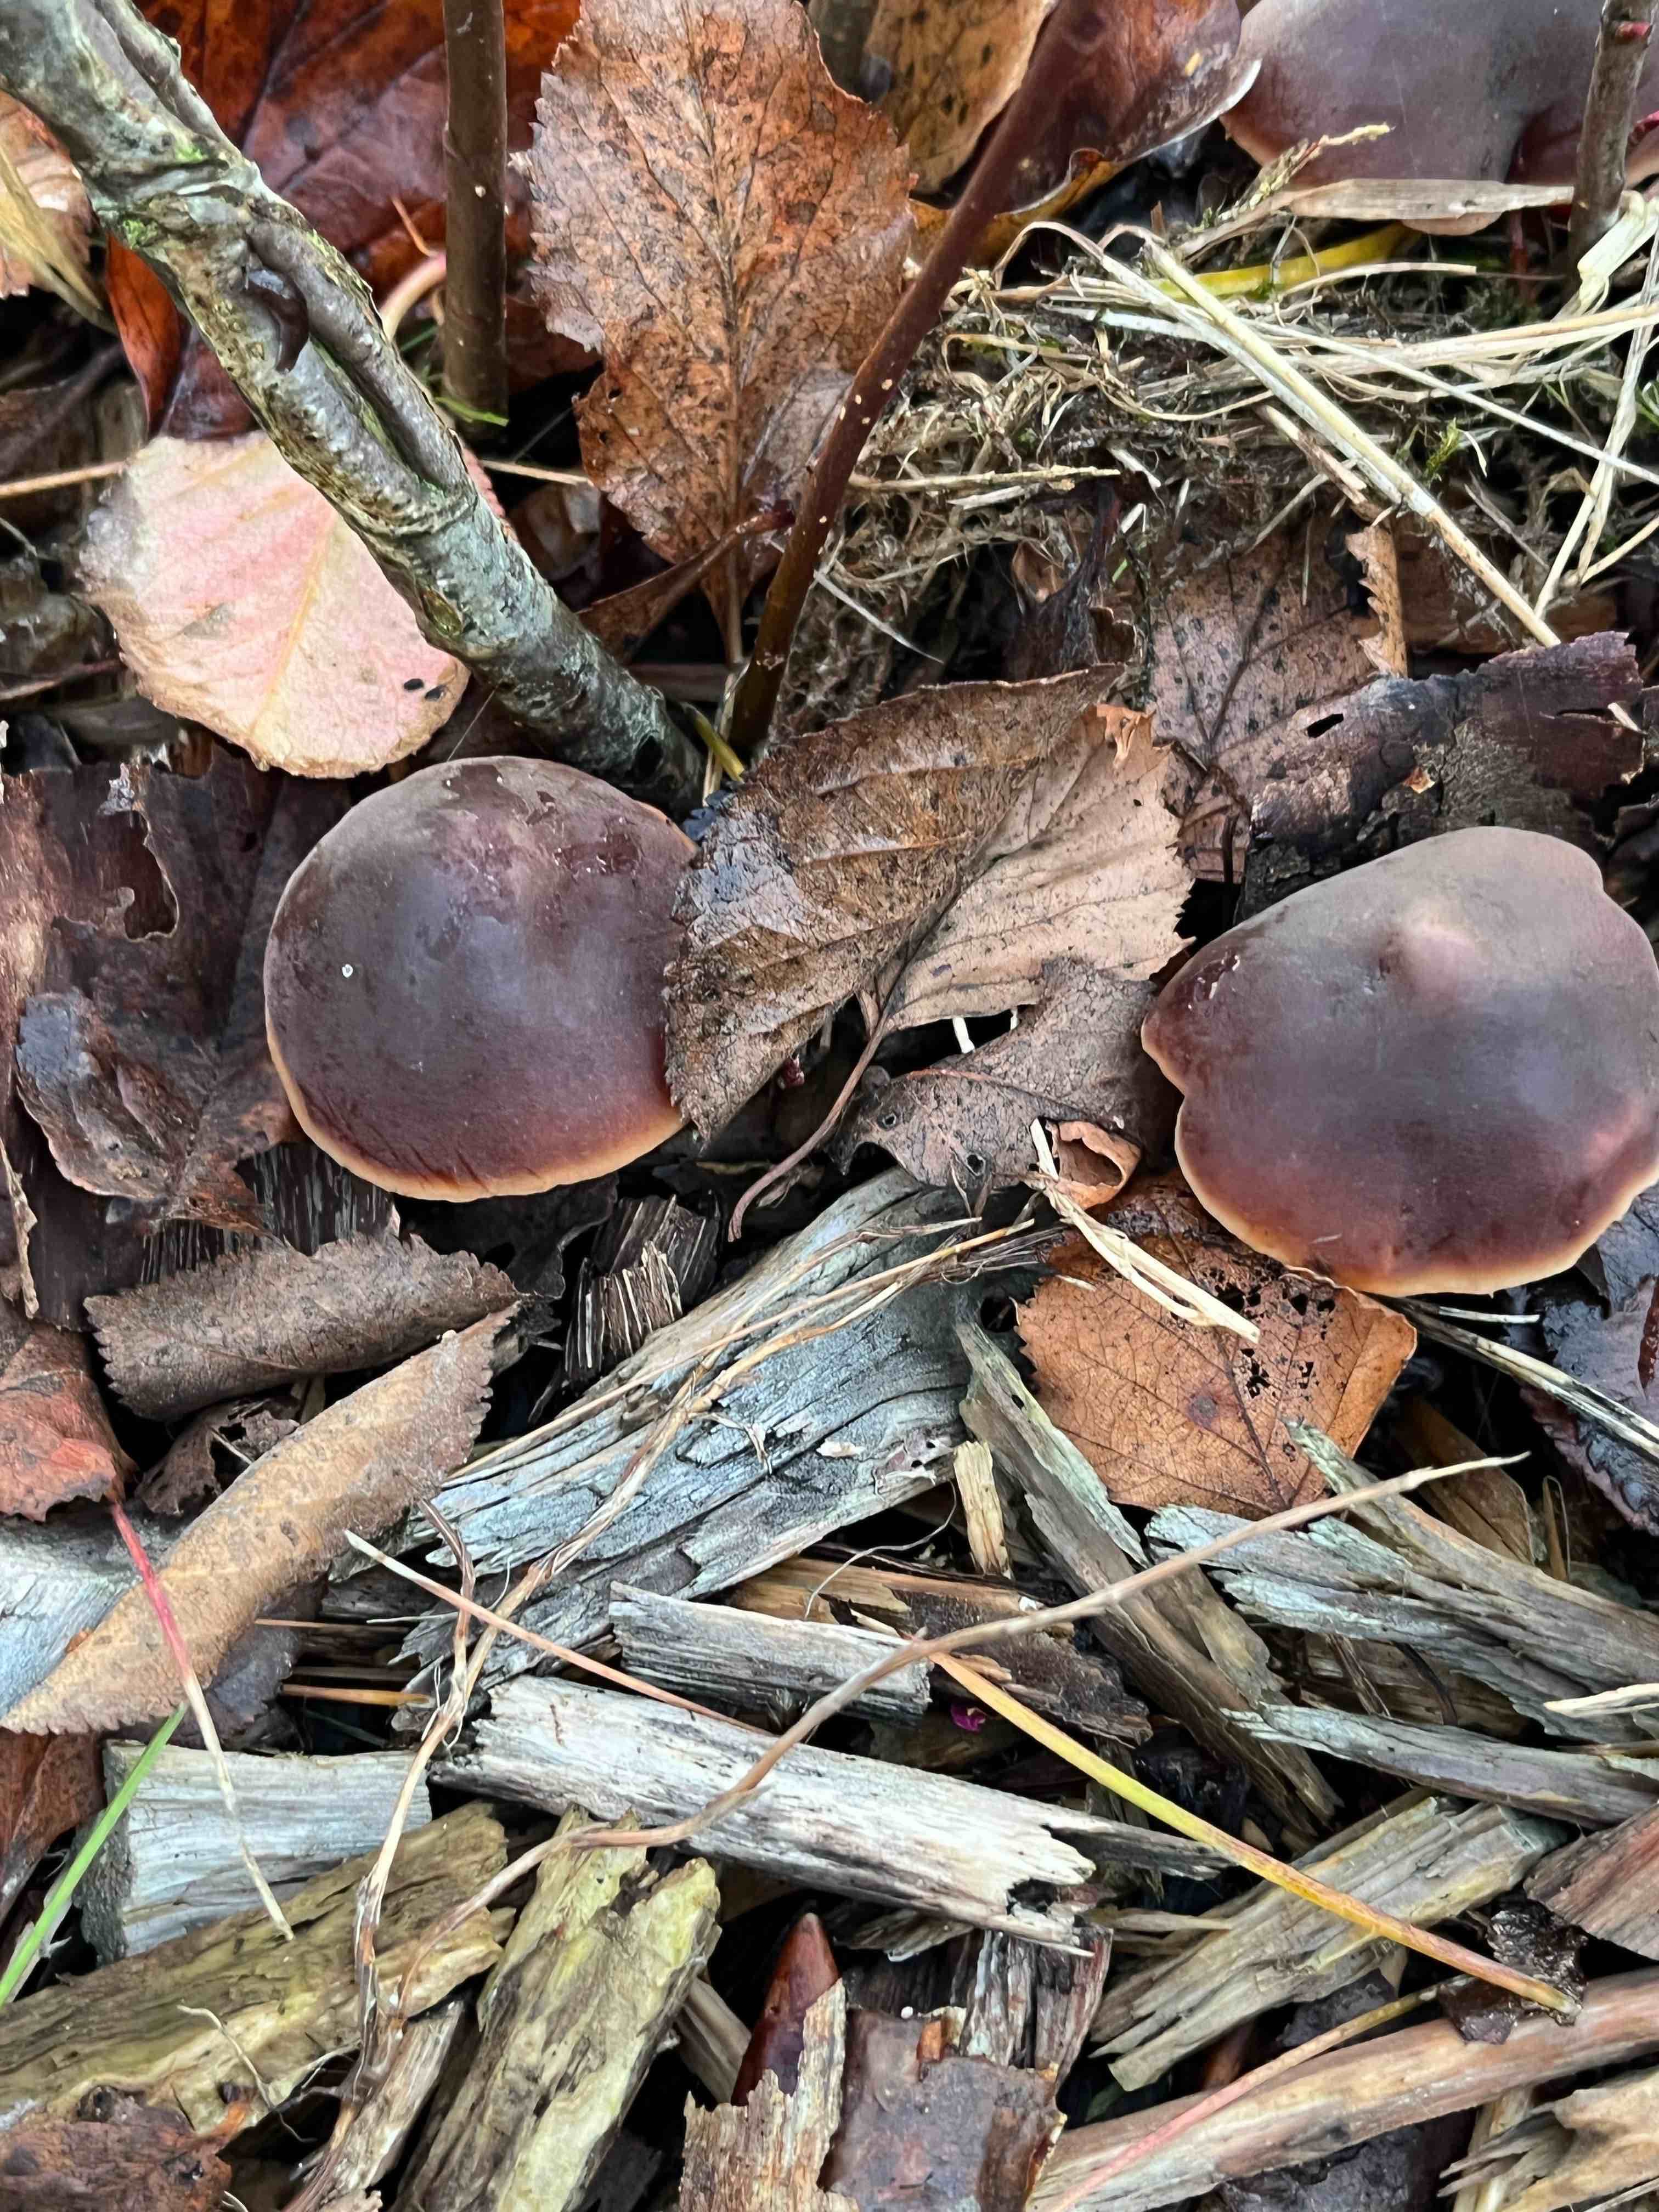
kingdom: Fungi
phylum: Basidiomycota
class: Agaricomycetes
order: Agaricales
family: Macrocystidiaceae
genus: Macrocystidia
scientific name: Macrocystidia cucumis
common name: agurkehat
